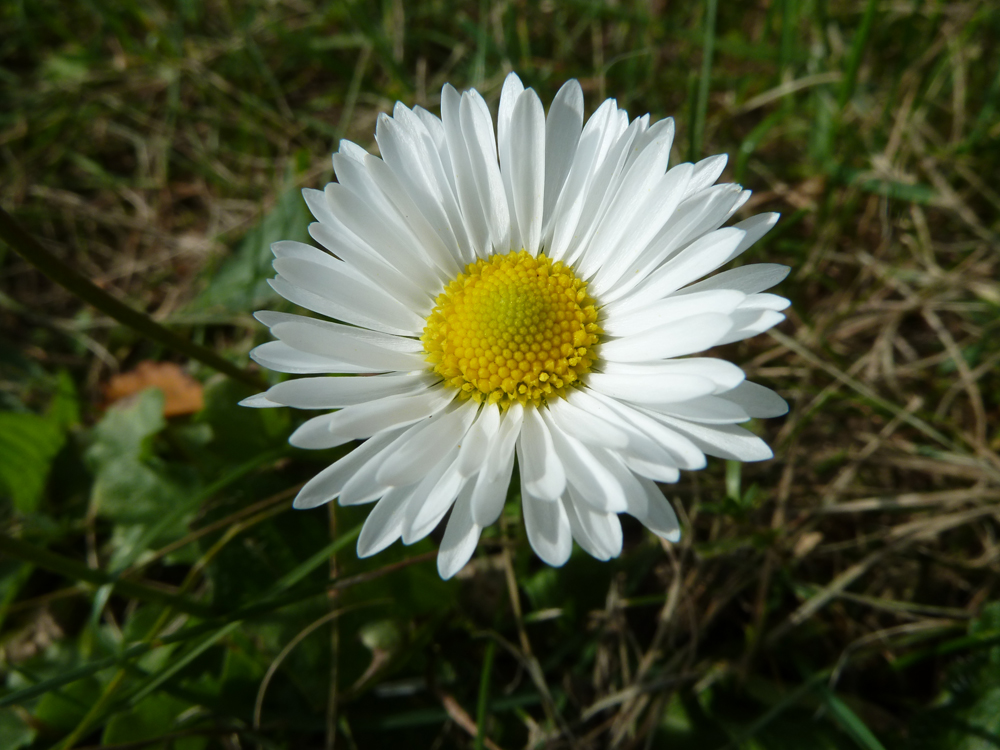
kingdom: Plantae
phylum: Tracheophyta
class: Magnoliopsida
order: Asterales
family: Asteraceae
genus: Bellis
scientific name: Bellis perennis
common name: Lawndaisy
